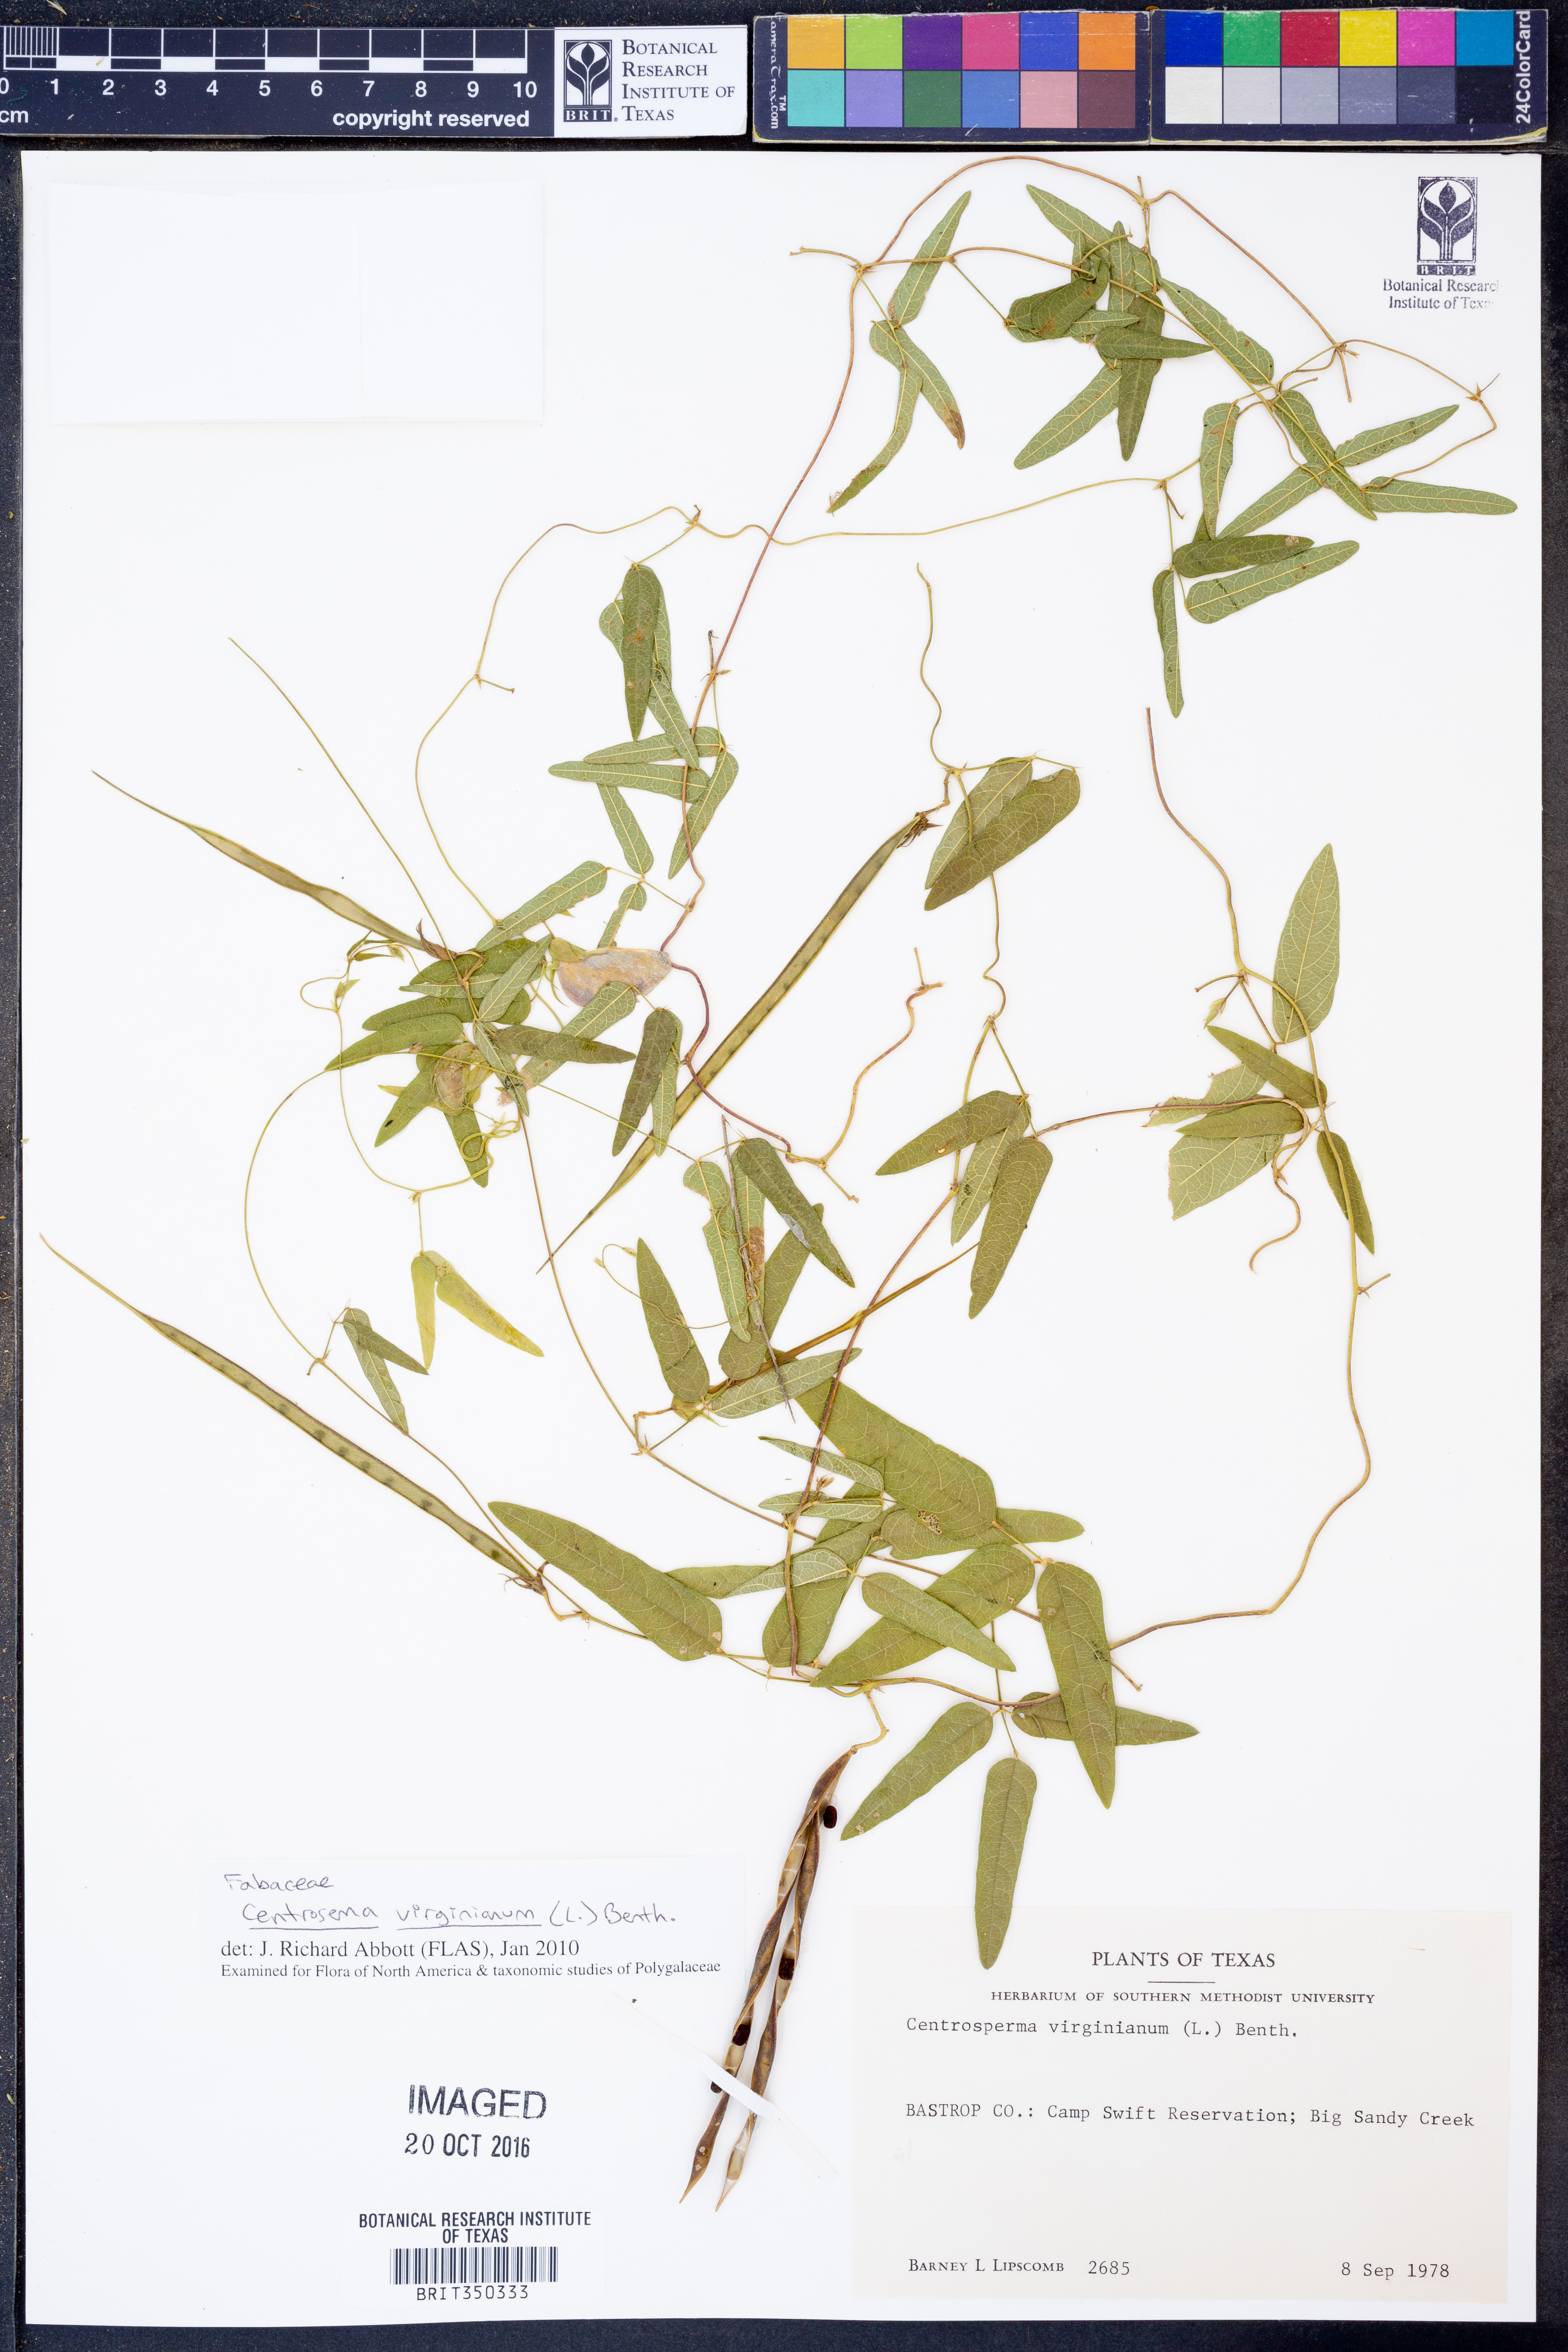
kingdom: Plantae
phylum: Tracheophyta
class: Magnoliopsida
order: Fabales
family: Fabaceae
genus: Centrosema
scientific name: Centrosema virginianum
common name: Butterfly-pea
